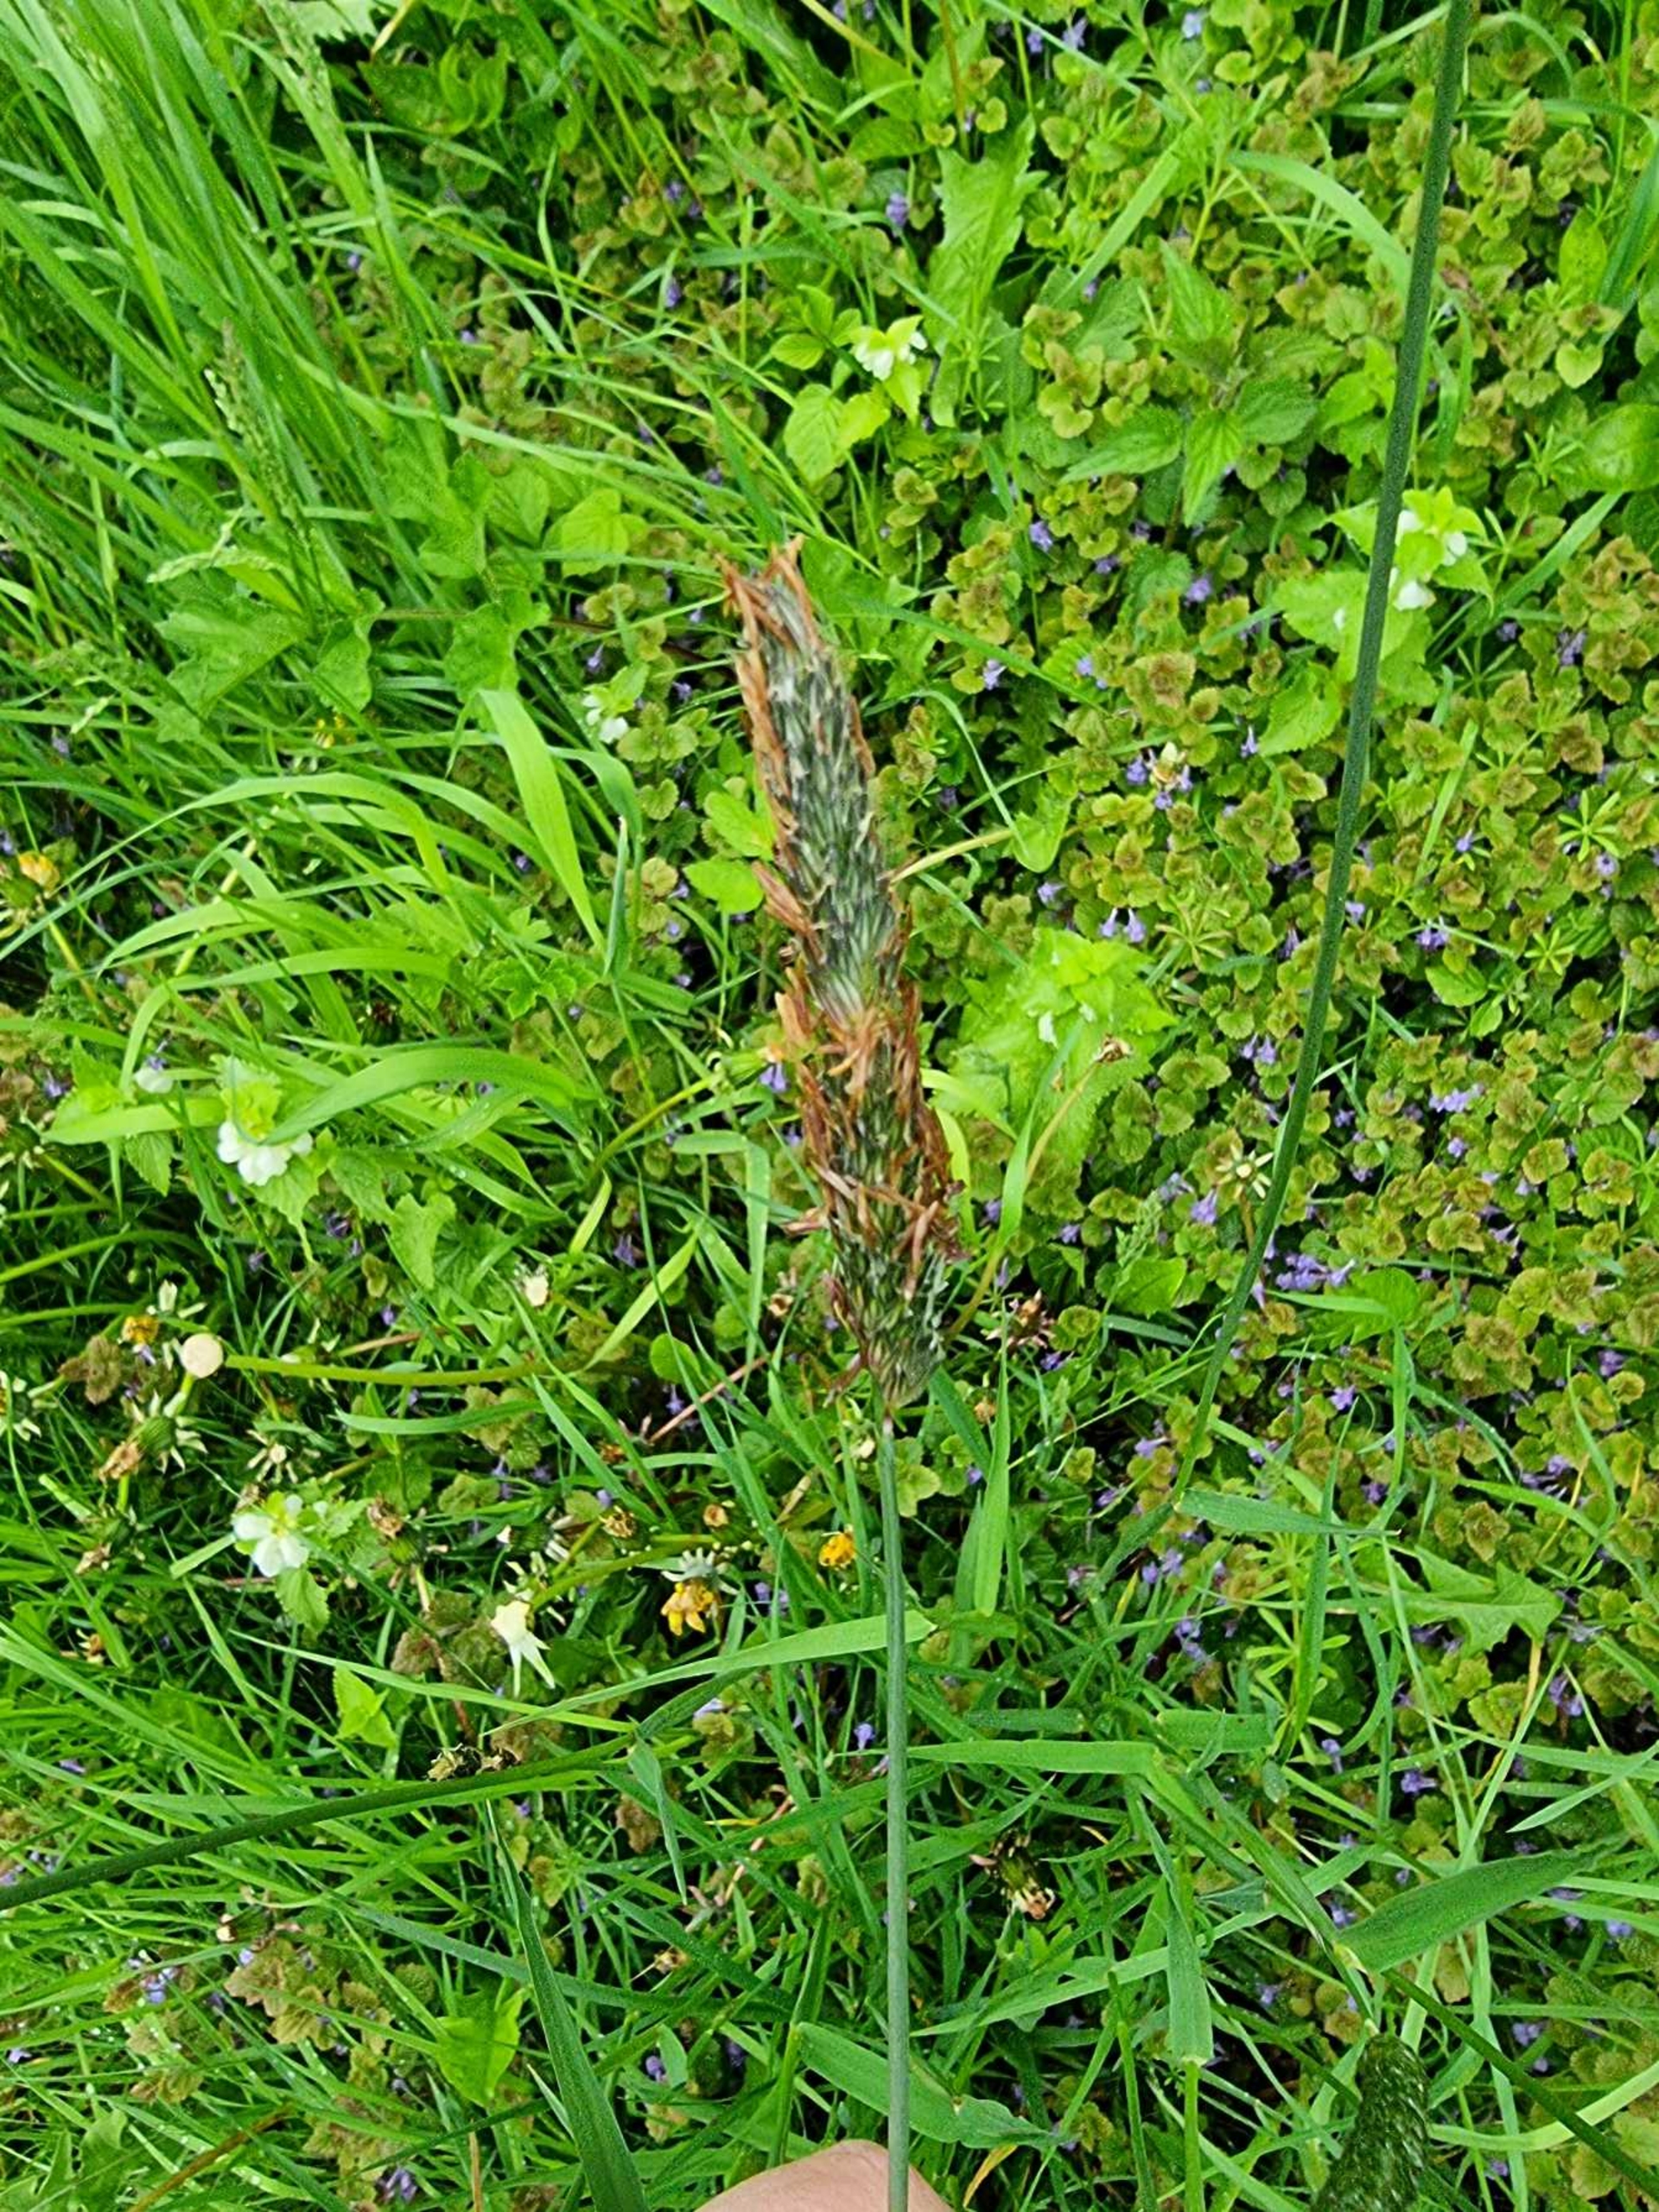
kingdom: Plantae
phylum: Tracheophyta
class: Liliopsida
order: Poales
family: Poaceae
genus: Alopecurus
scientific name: Alopecurus pratensis
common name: Eng-rævehale
